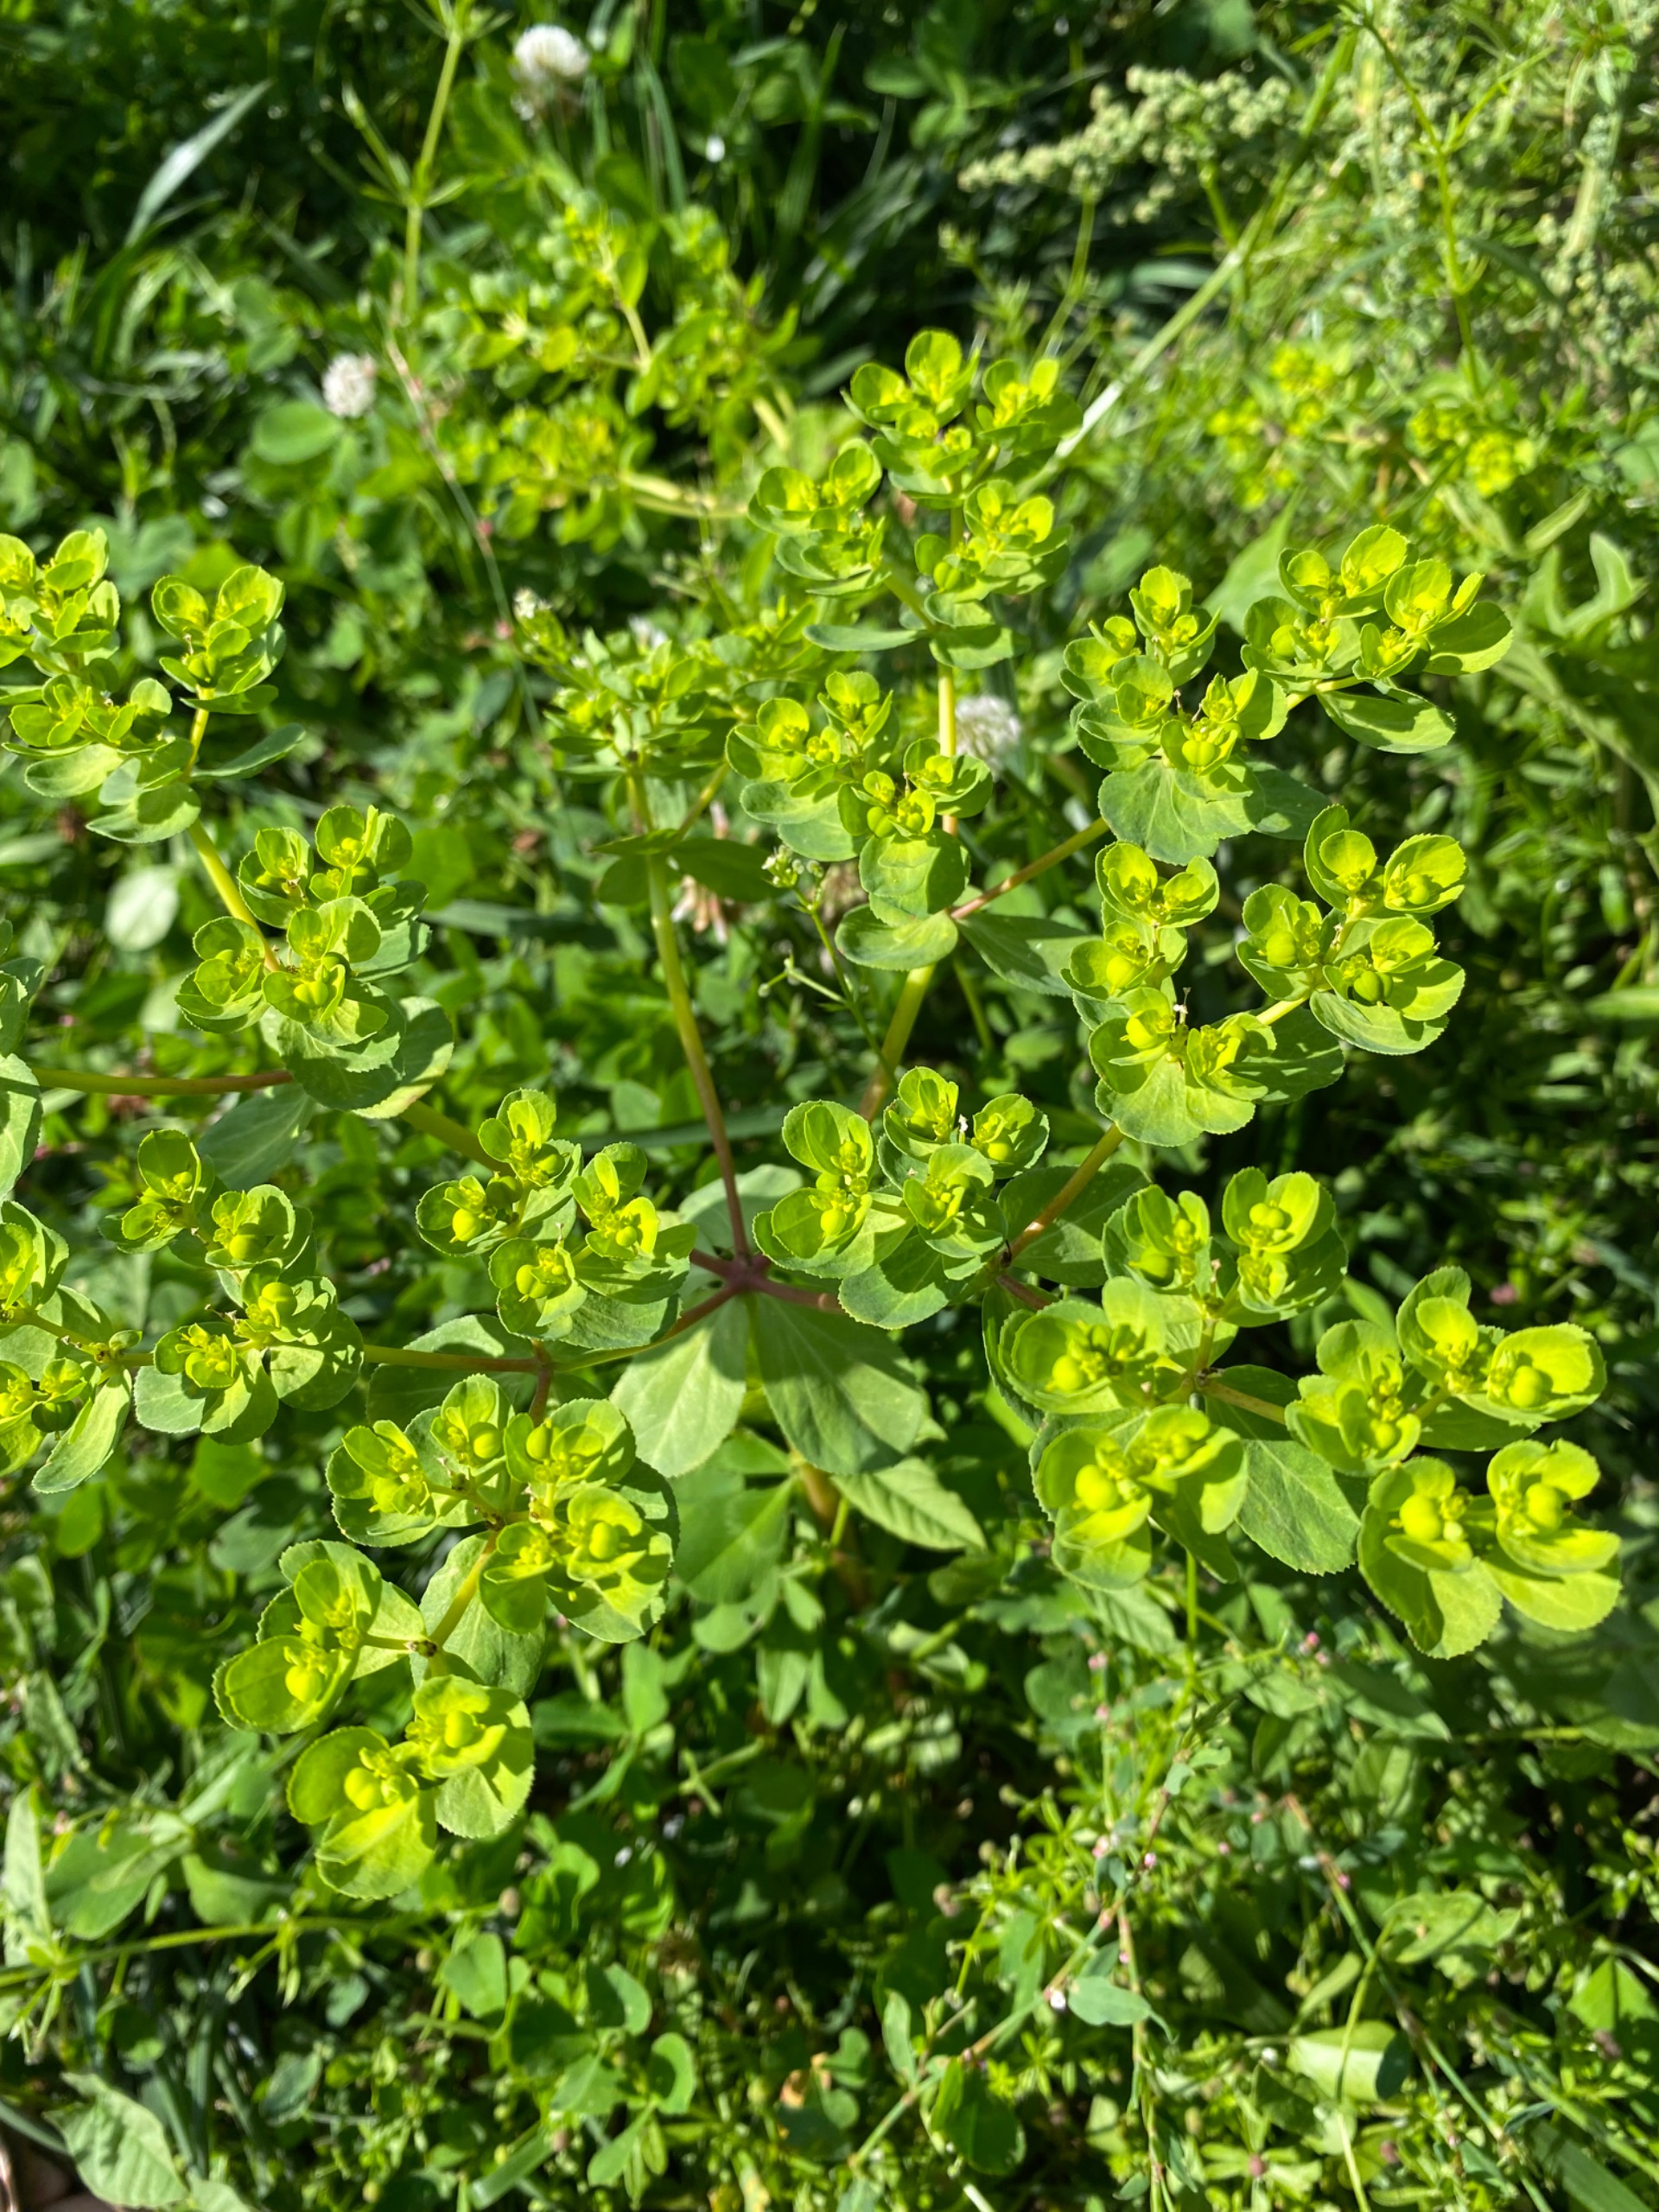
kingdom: Plantae
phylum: Tracheophyta
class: Magnoliopsida
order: Malpighiales
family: Euphorbiaceae
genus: Euphorbia
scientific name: Euphorbia helioscopia
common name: Skærm-vortemælk
